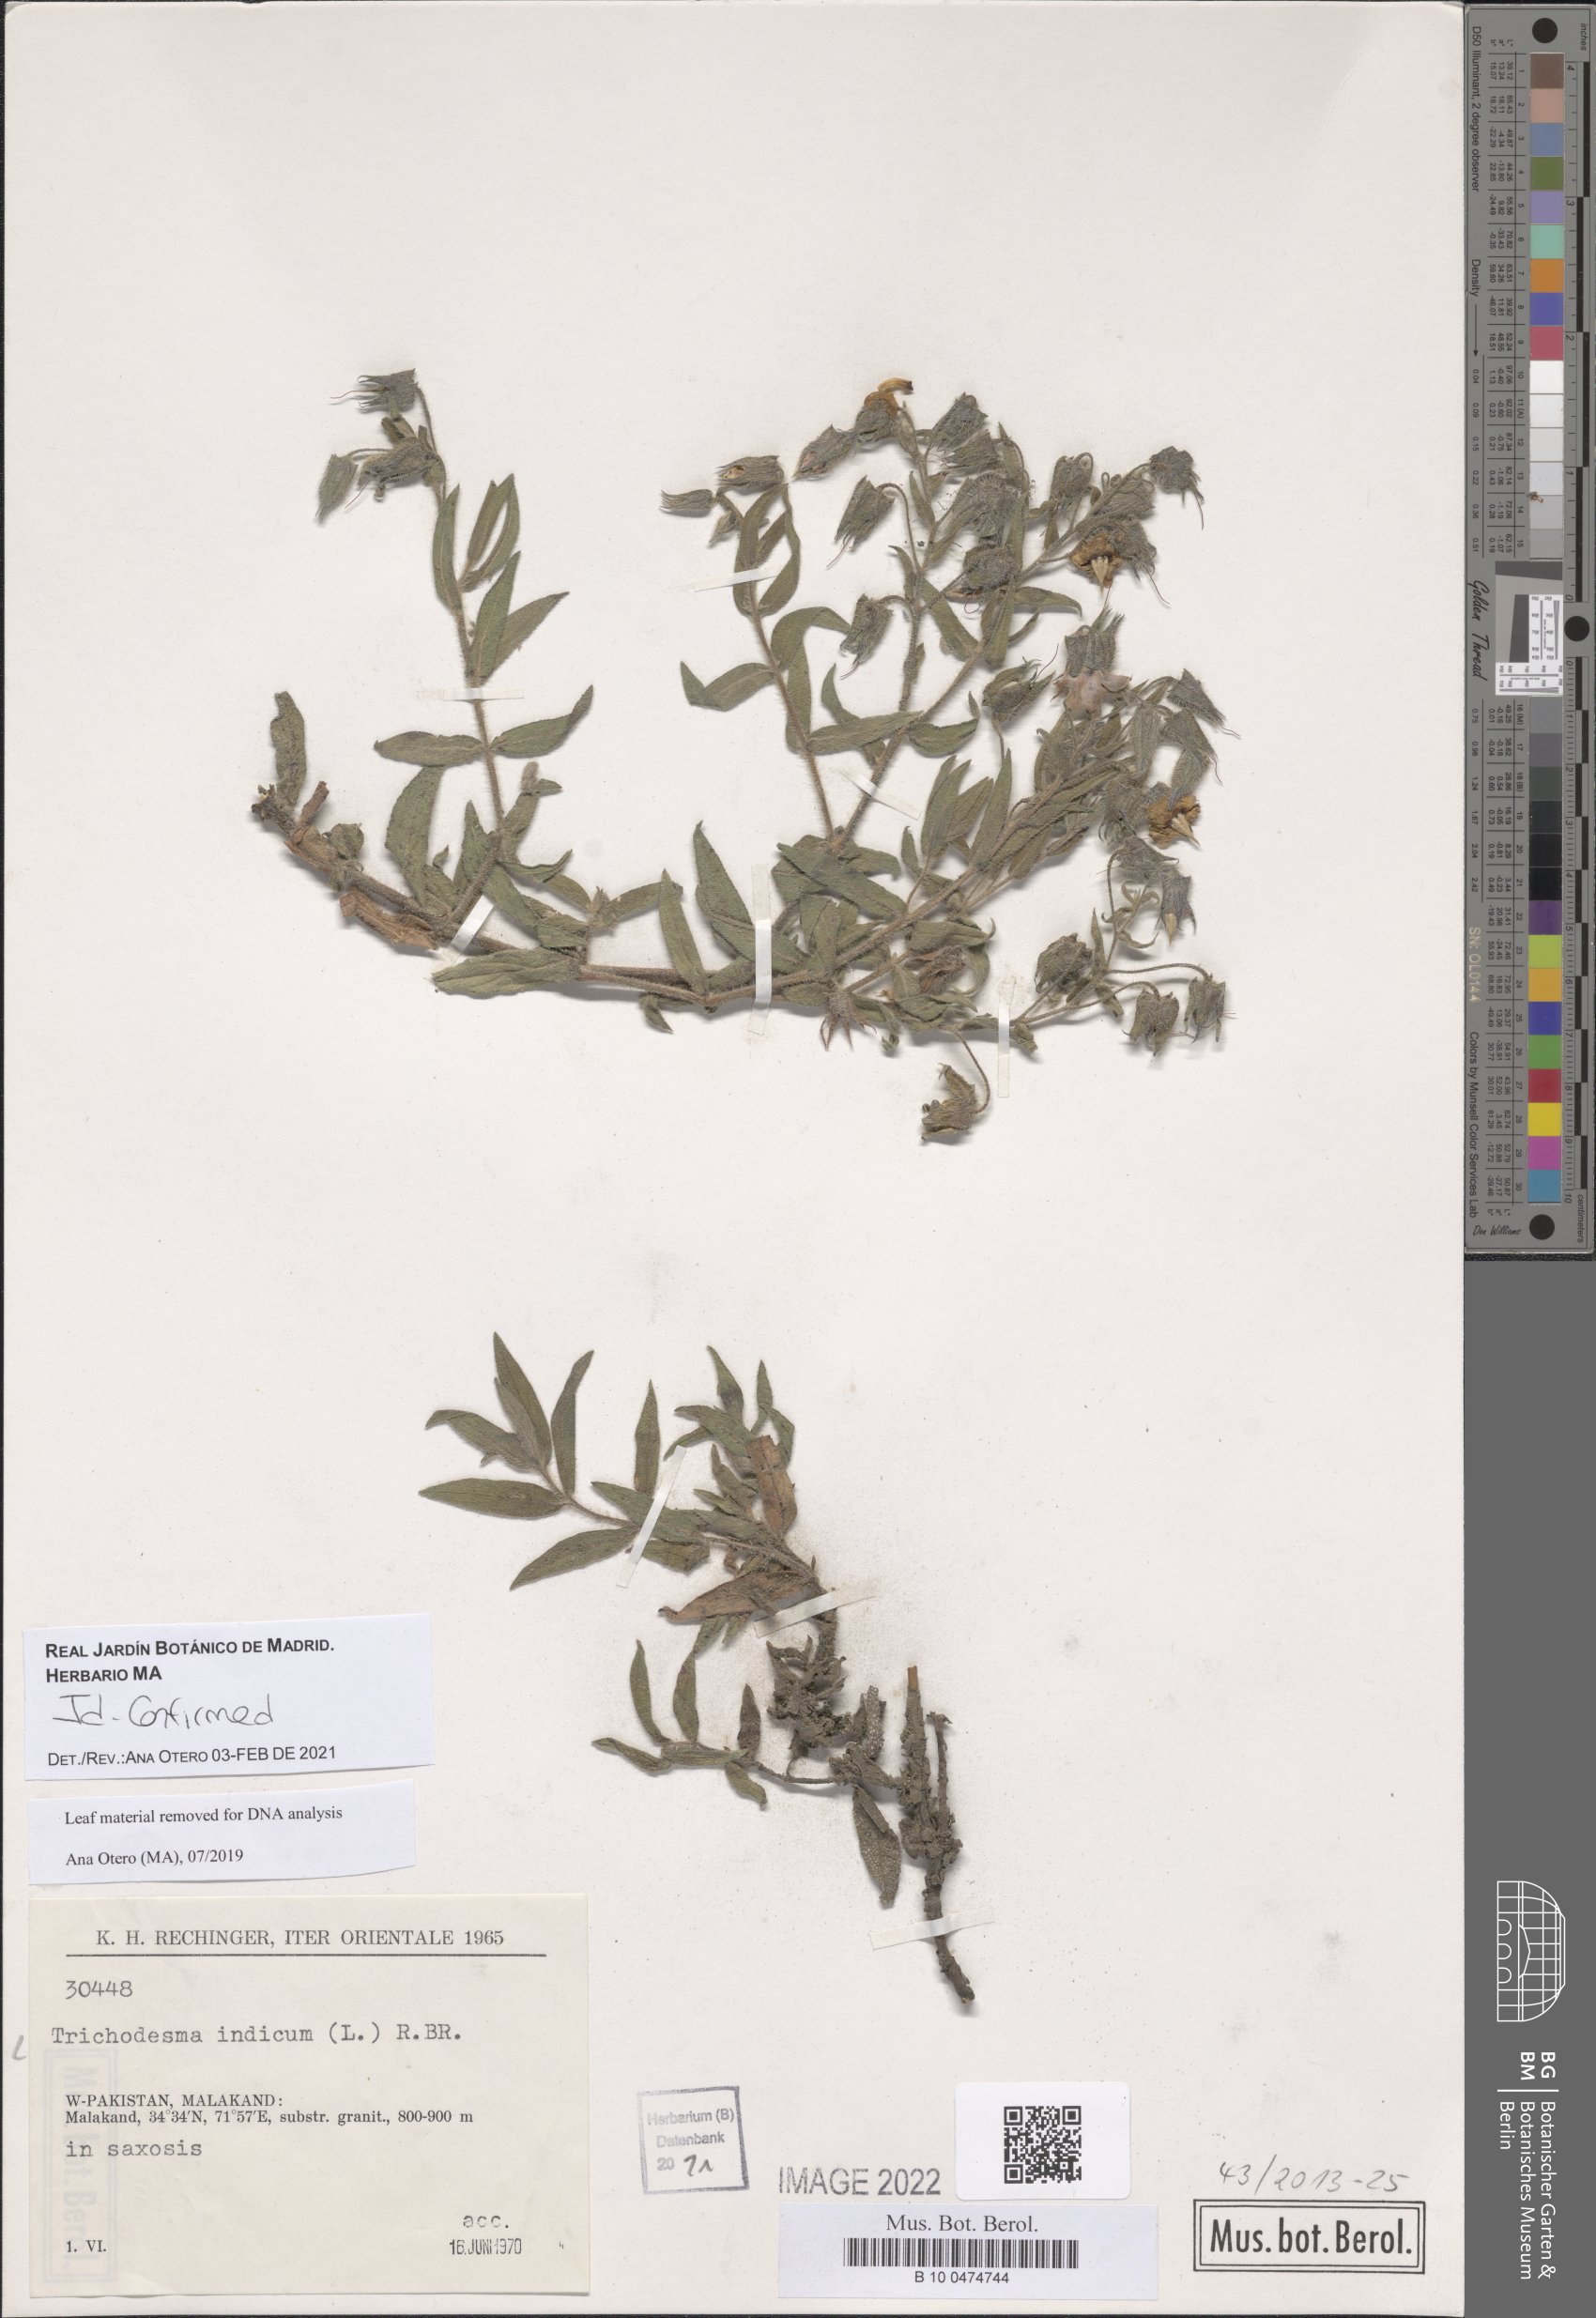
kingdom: Plantae
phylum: Tracheophyta
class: Magnoliopsida
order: Boraginales
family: Boraginaceae
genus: Trichodesma
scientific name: Trichodesma indicum
